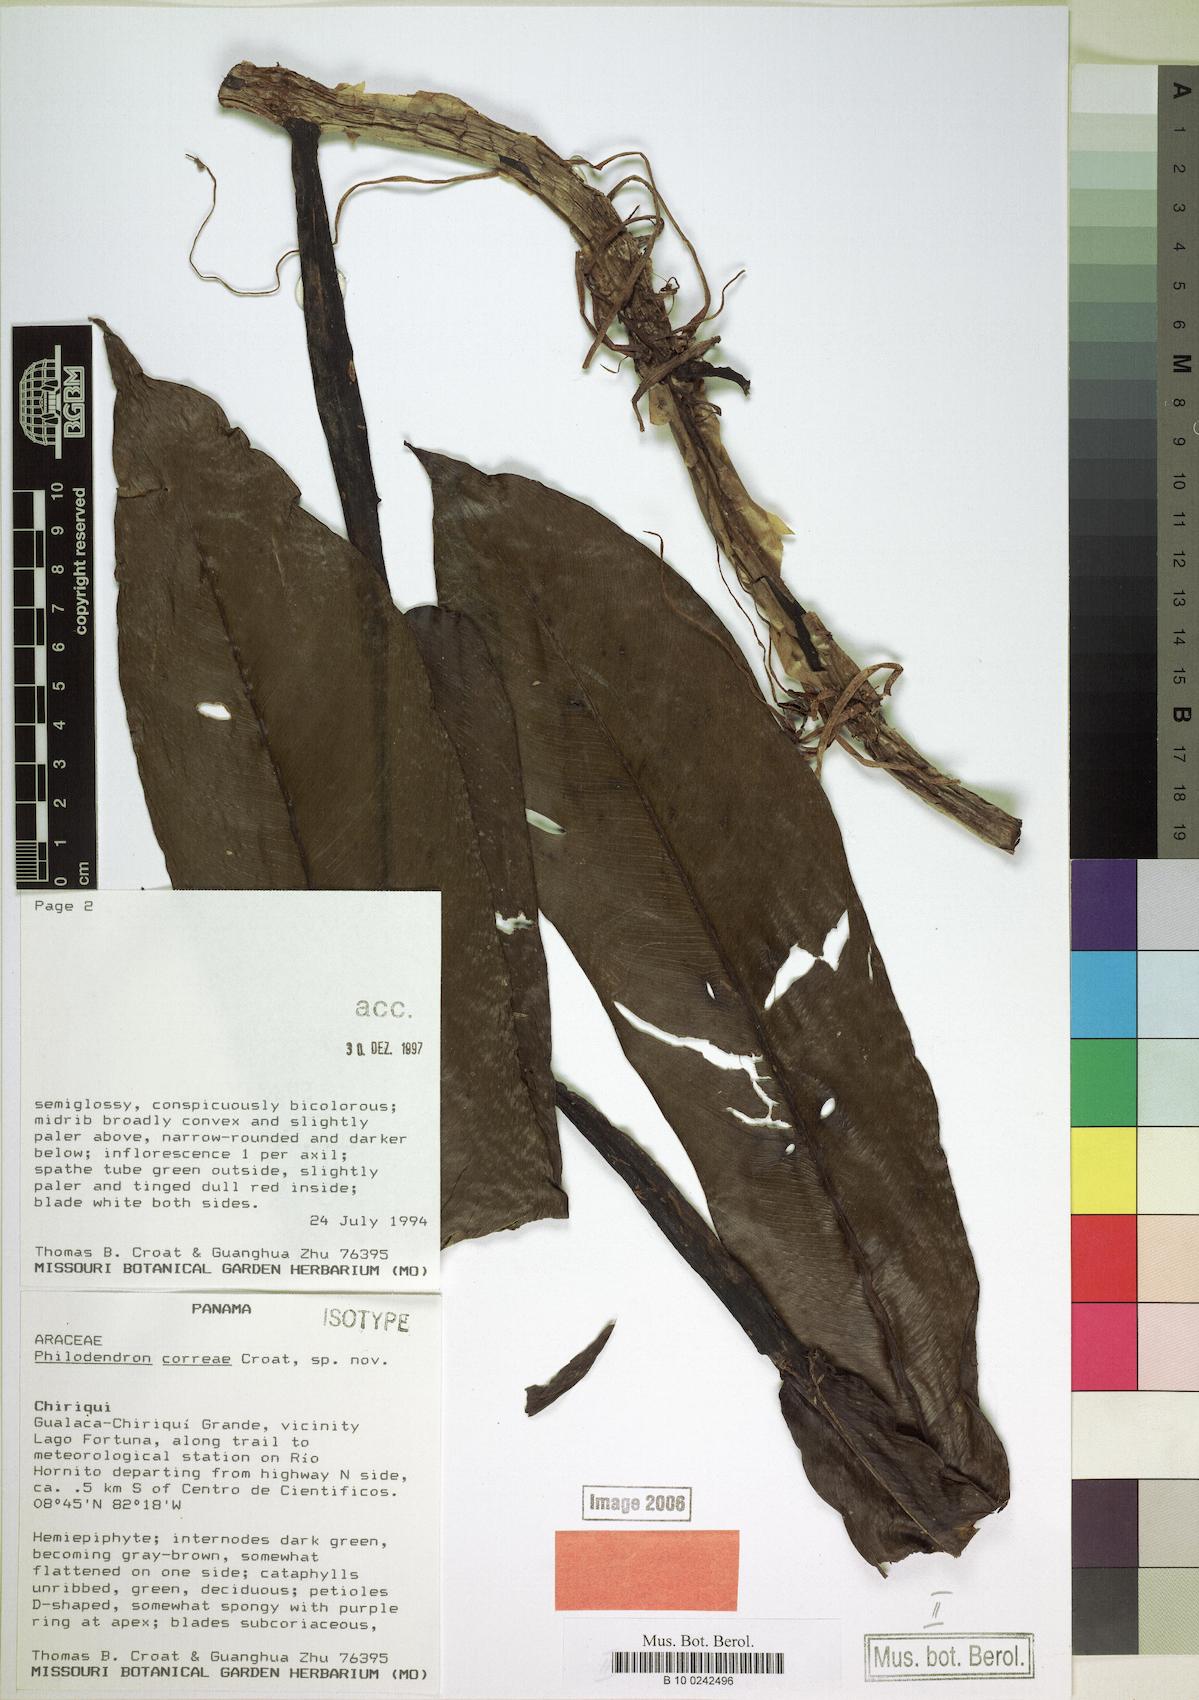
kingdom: Plantae
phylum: Tracheophyta
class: Liliopsida
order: Alismatales
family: Araceae
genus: Philodendron
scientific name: Philodendron correae
